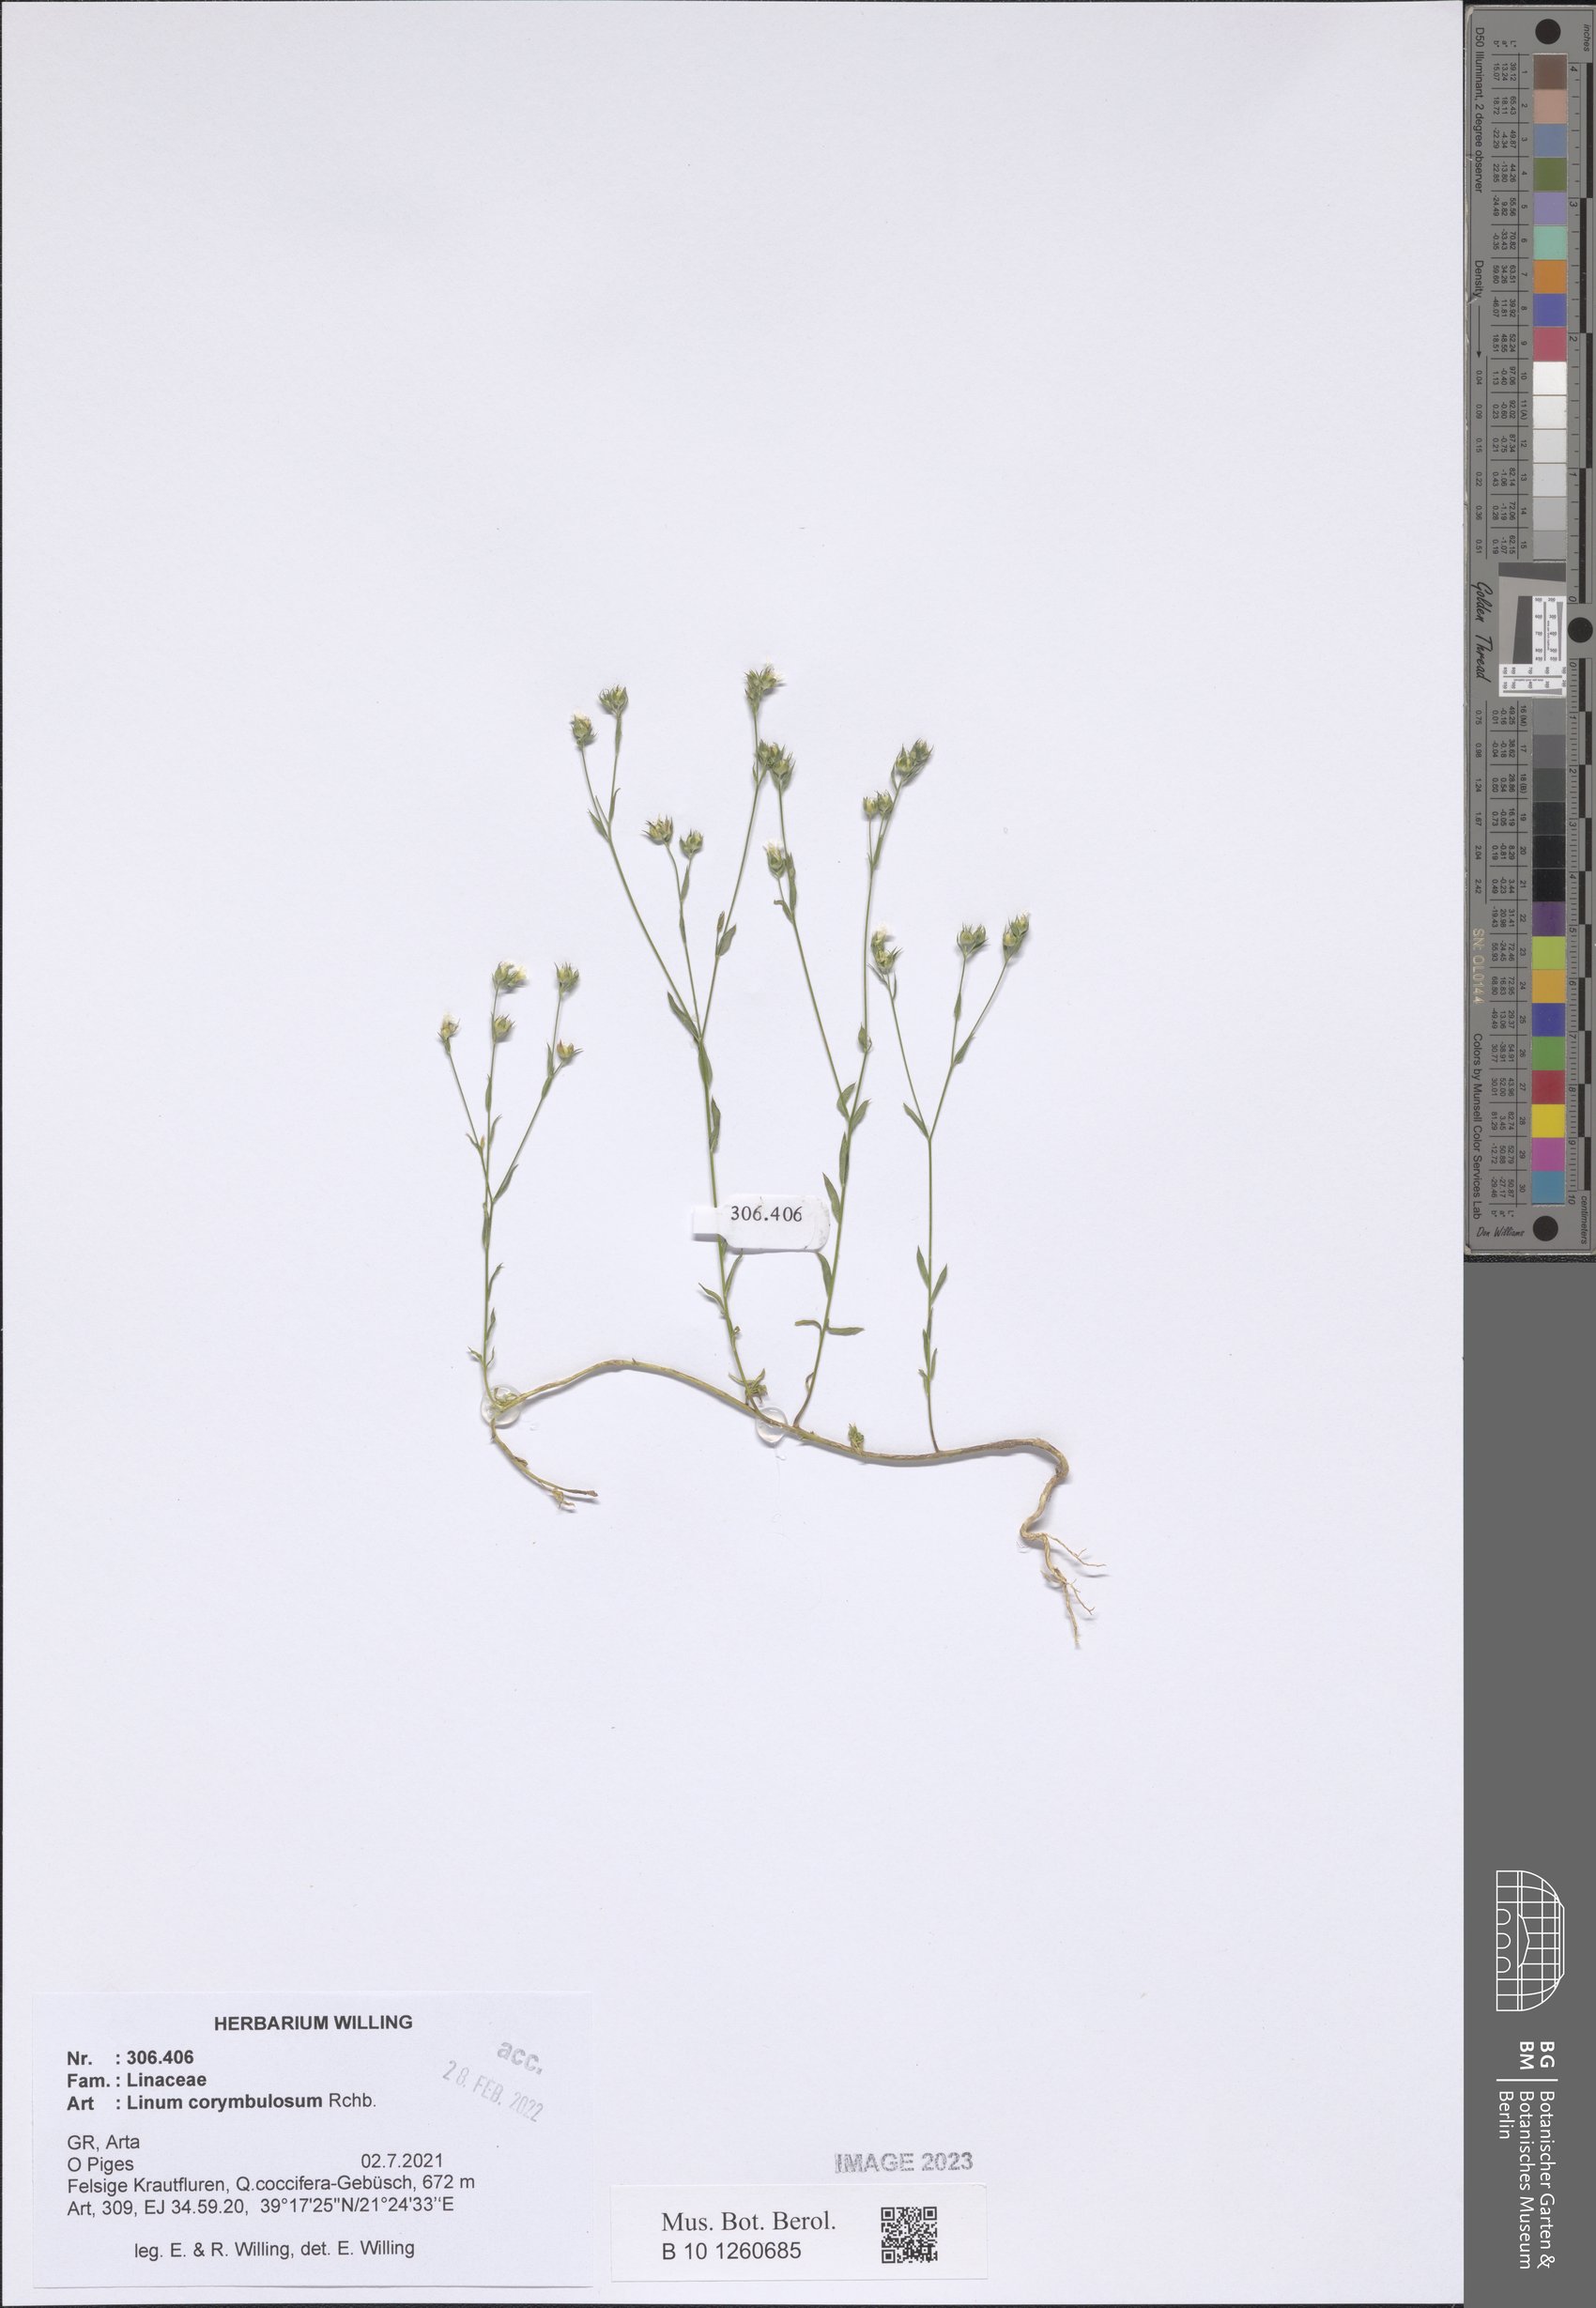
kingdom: Plantae
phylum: Tracheophyta
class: Magnoliopsida
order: Malpighiales
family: Linaceae
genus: Linum
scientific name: Linum corymbulosum
